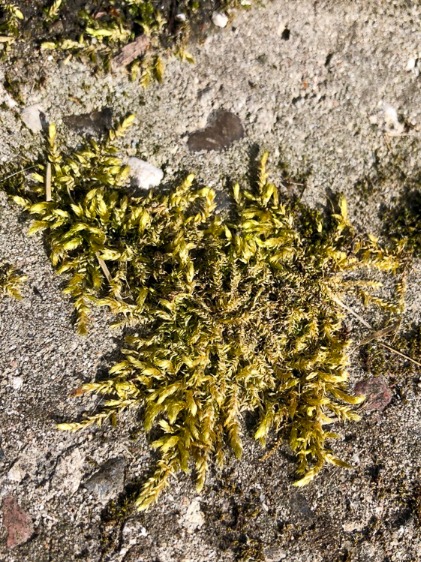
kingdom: Plantae
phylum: Bryophyta
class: Bryopsida
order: Hypnales
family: Brachytheciaceae
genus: Brachythecium
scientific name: Brachythecium rutabulum
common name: Almindelig kortkapsel
